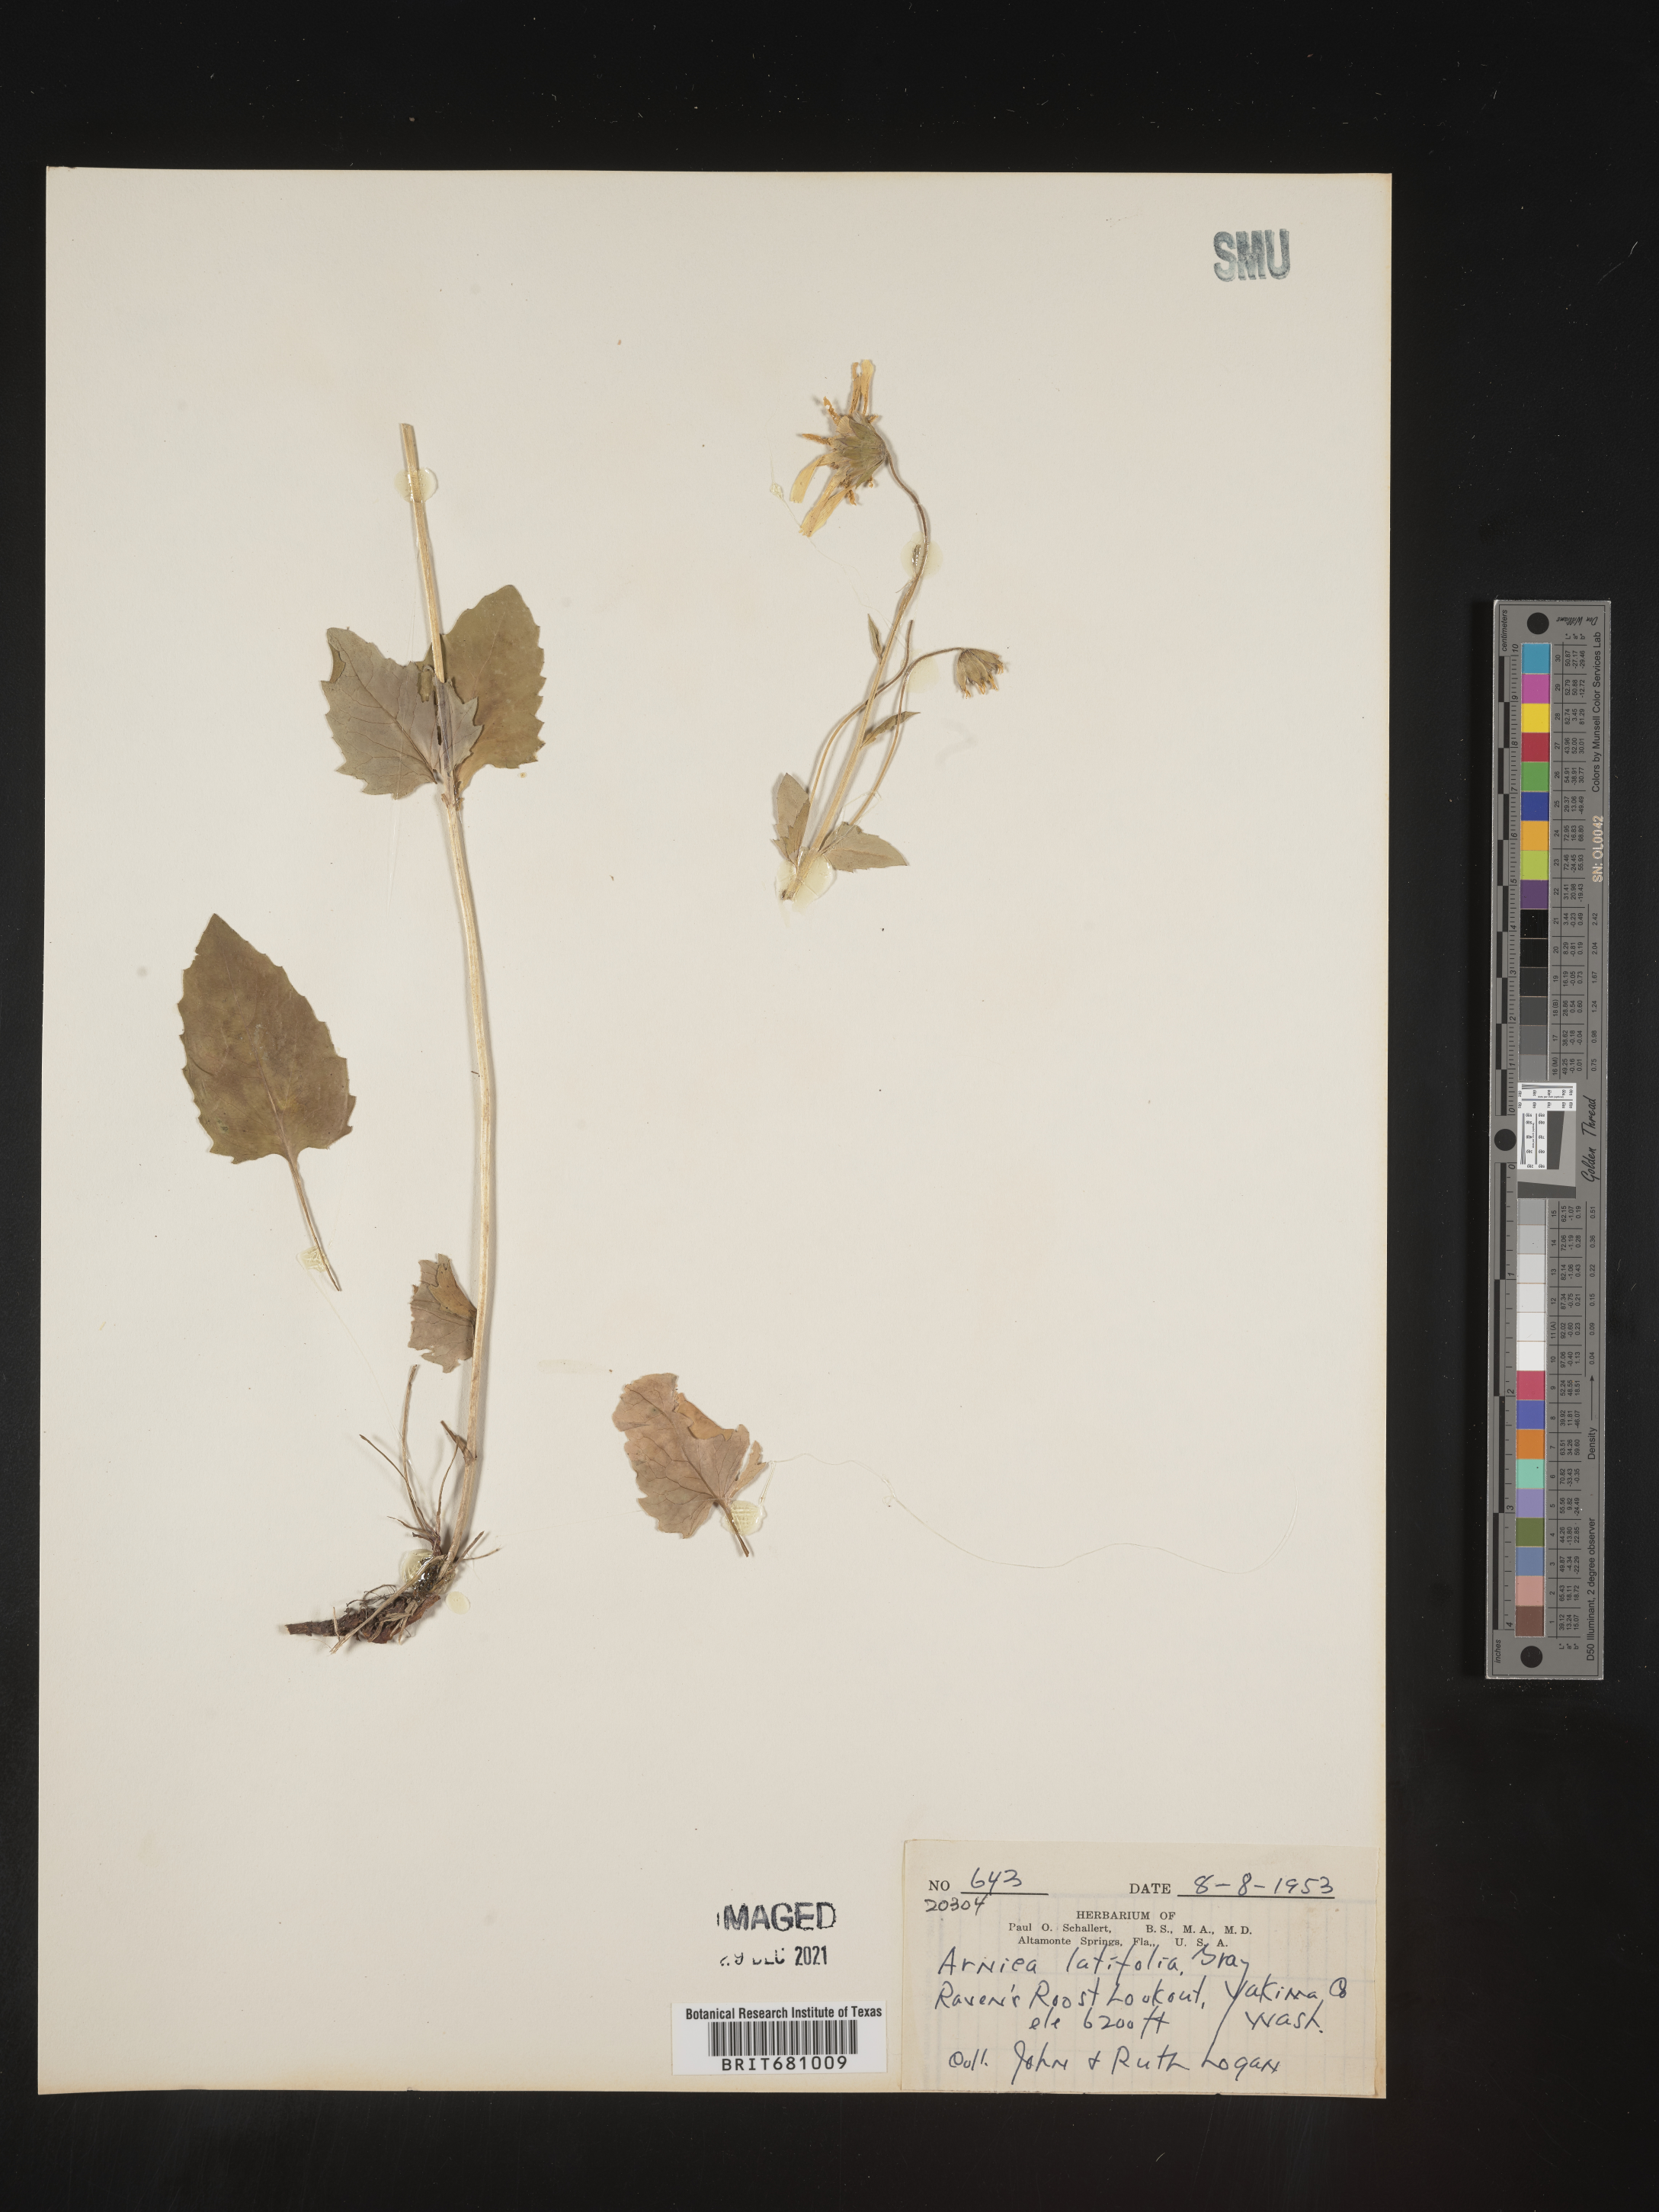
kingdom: Plantae
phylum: Tracheophyta
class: Magnoliopsida
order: Asterales
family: Asteraceae
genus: Arnica
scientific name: Arnica latifolia
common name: Arnica
